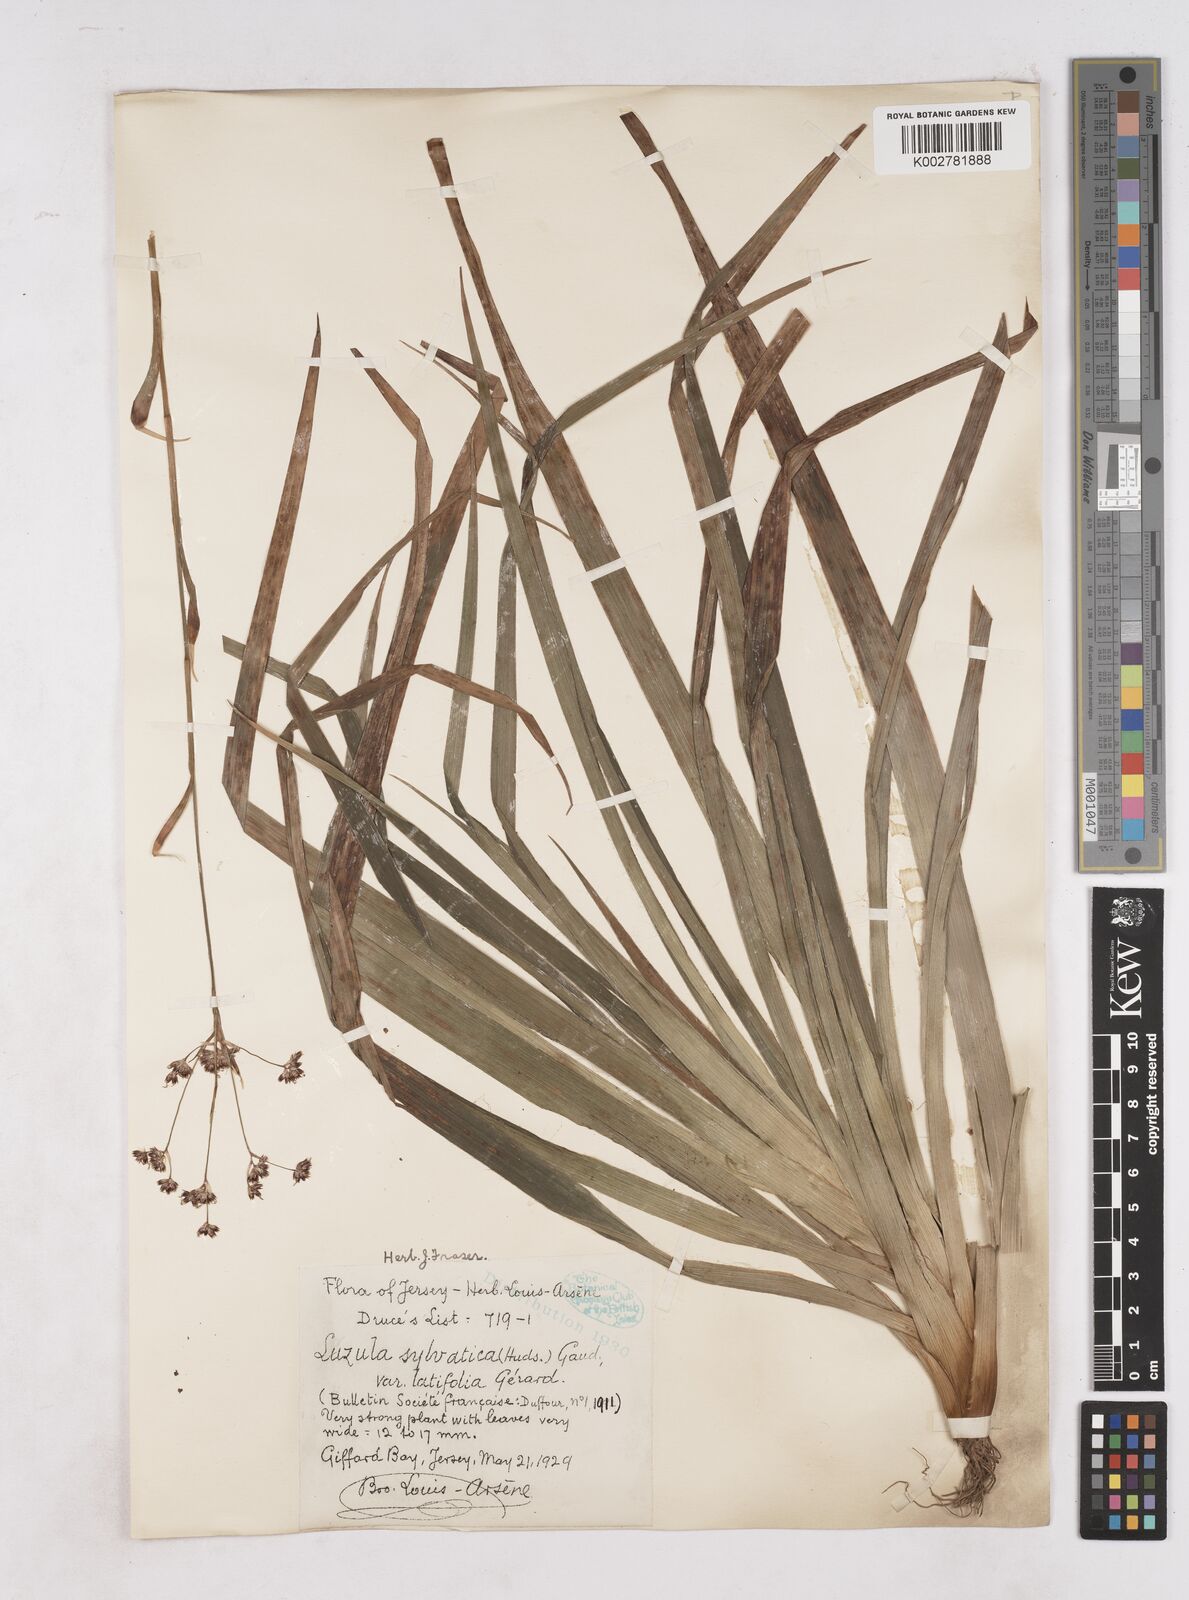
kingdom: Plantae
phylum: Tracheophyta
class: Liliopsida
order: Poales
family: Juncaceae
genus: Luzula
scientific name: Luzula sylvatica
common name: Great wood-rush
